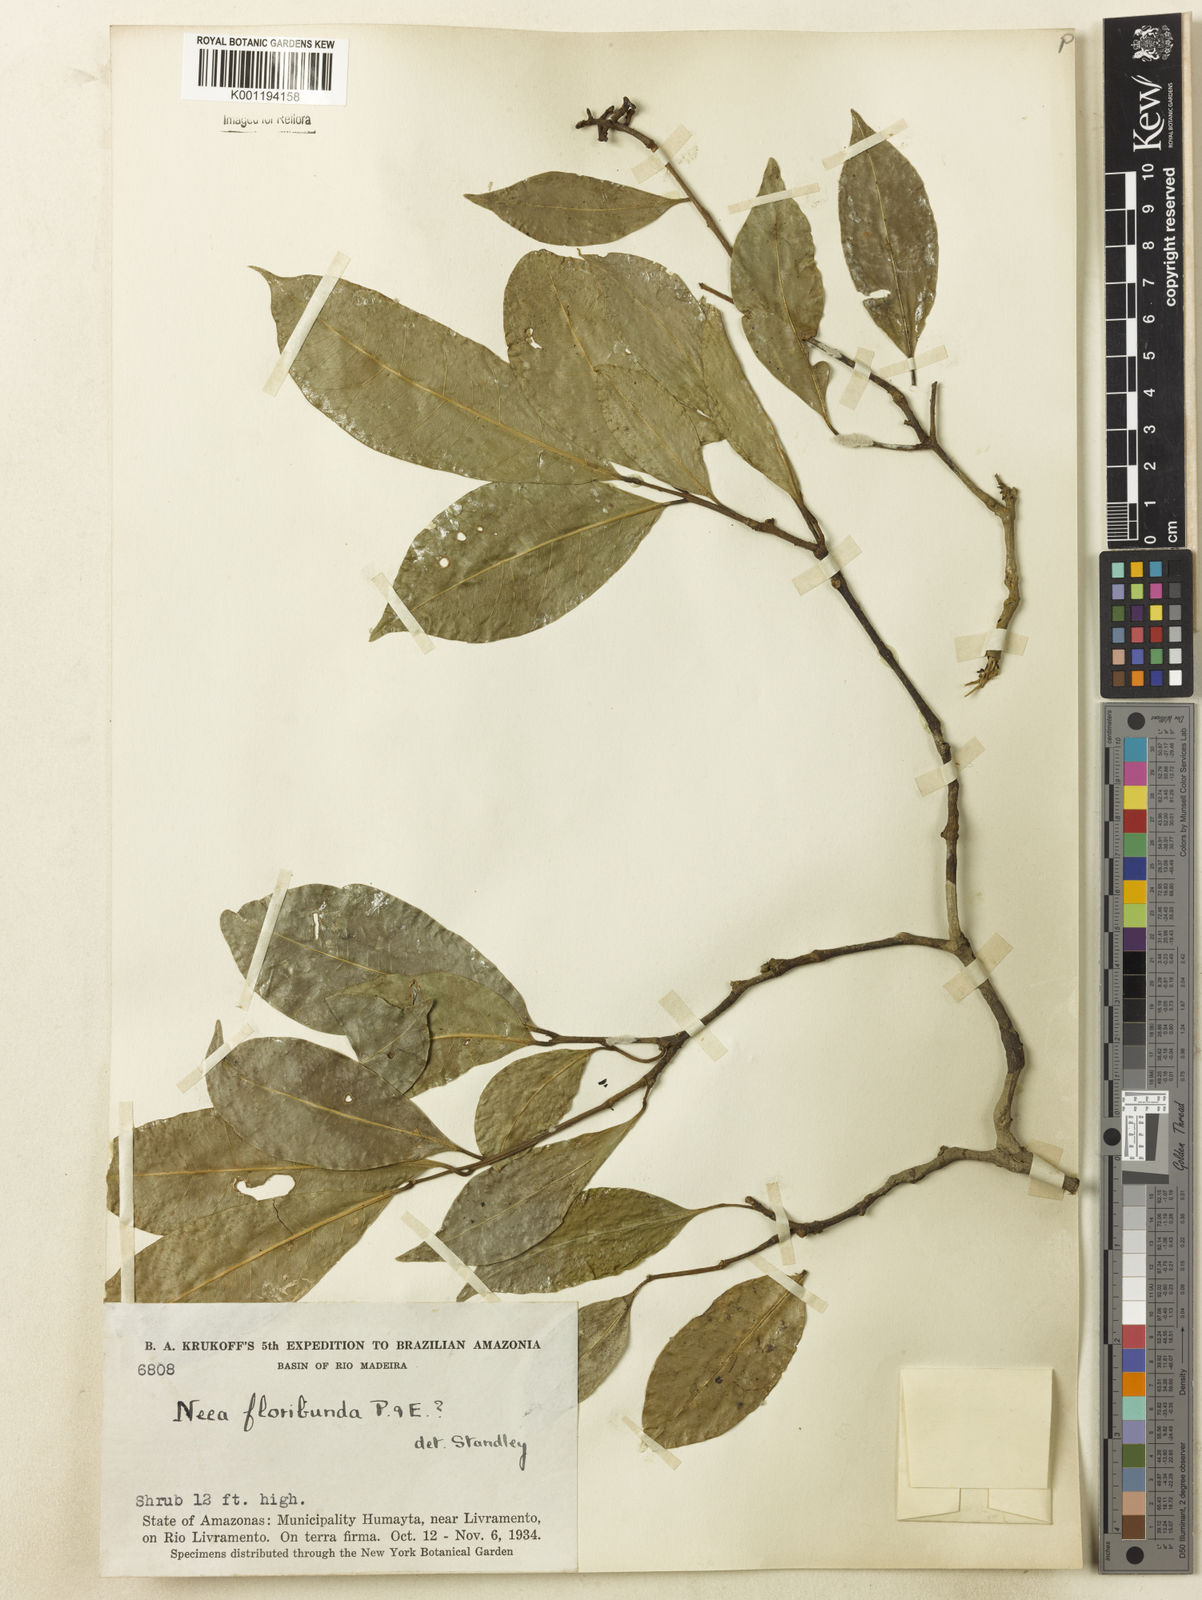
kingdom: Plantae
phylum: Tracheophyta
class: Magnoliopsida
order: Caryophyllales
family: Nyctaginaceae
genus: Neea
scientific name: Neea floribunda
